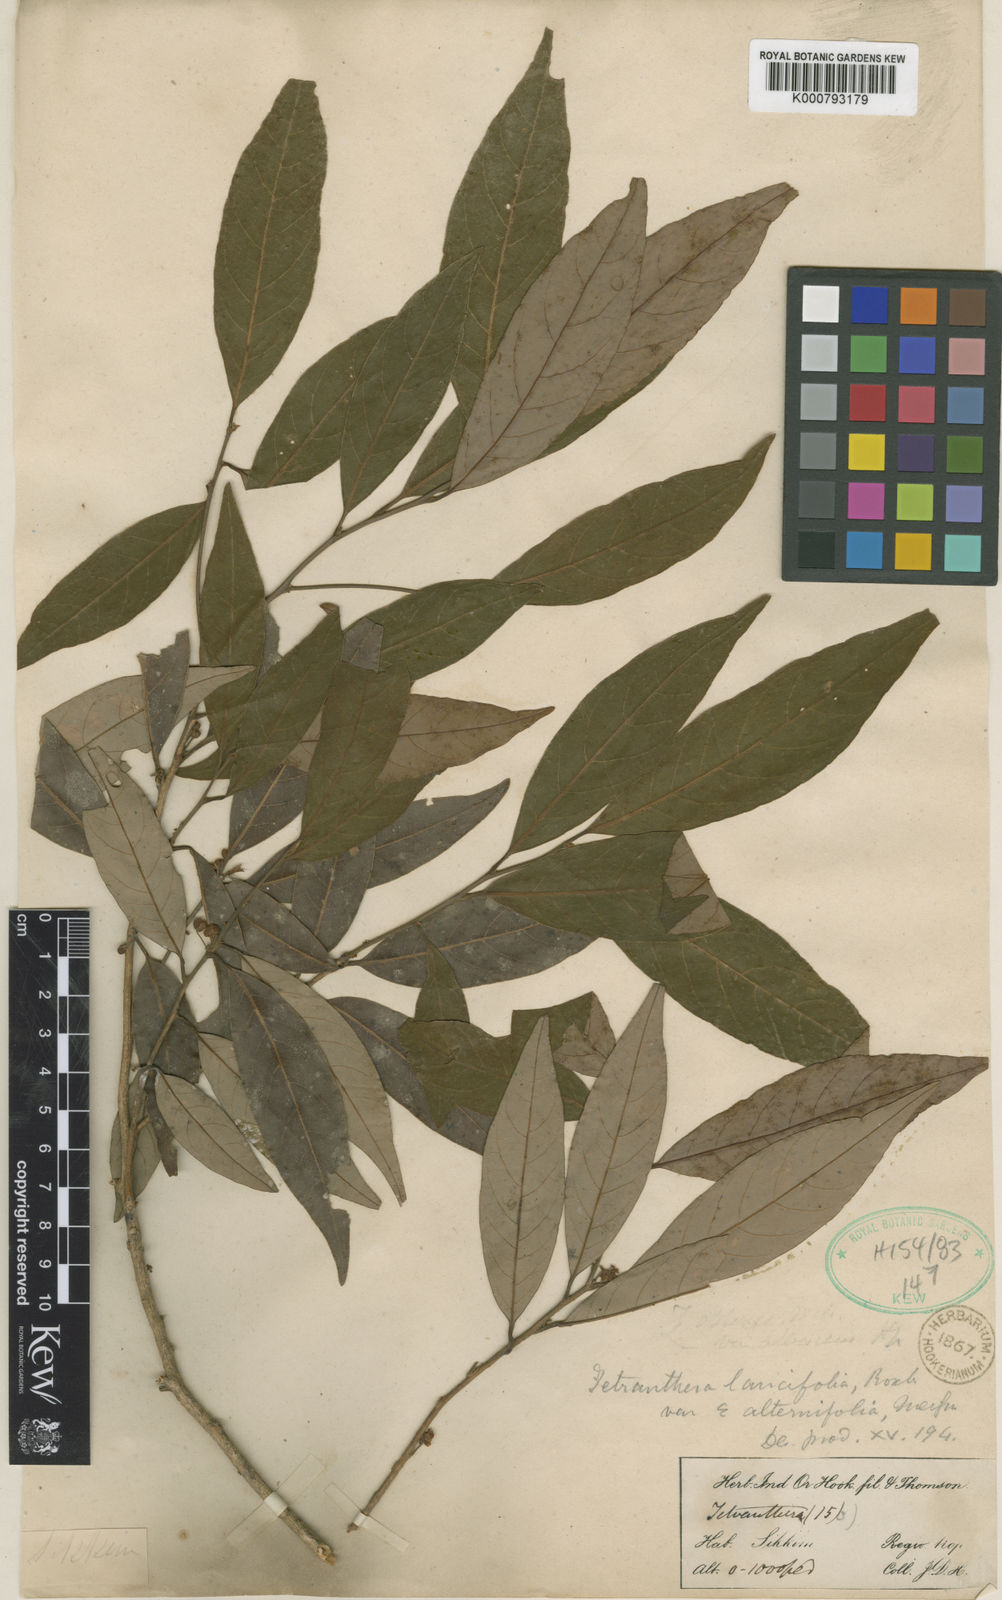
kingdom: Plantae
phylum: Tracheophyta
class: Magnoliopsida
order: Laurales
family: Lauraceae
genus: Litsea
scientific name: Litsea
